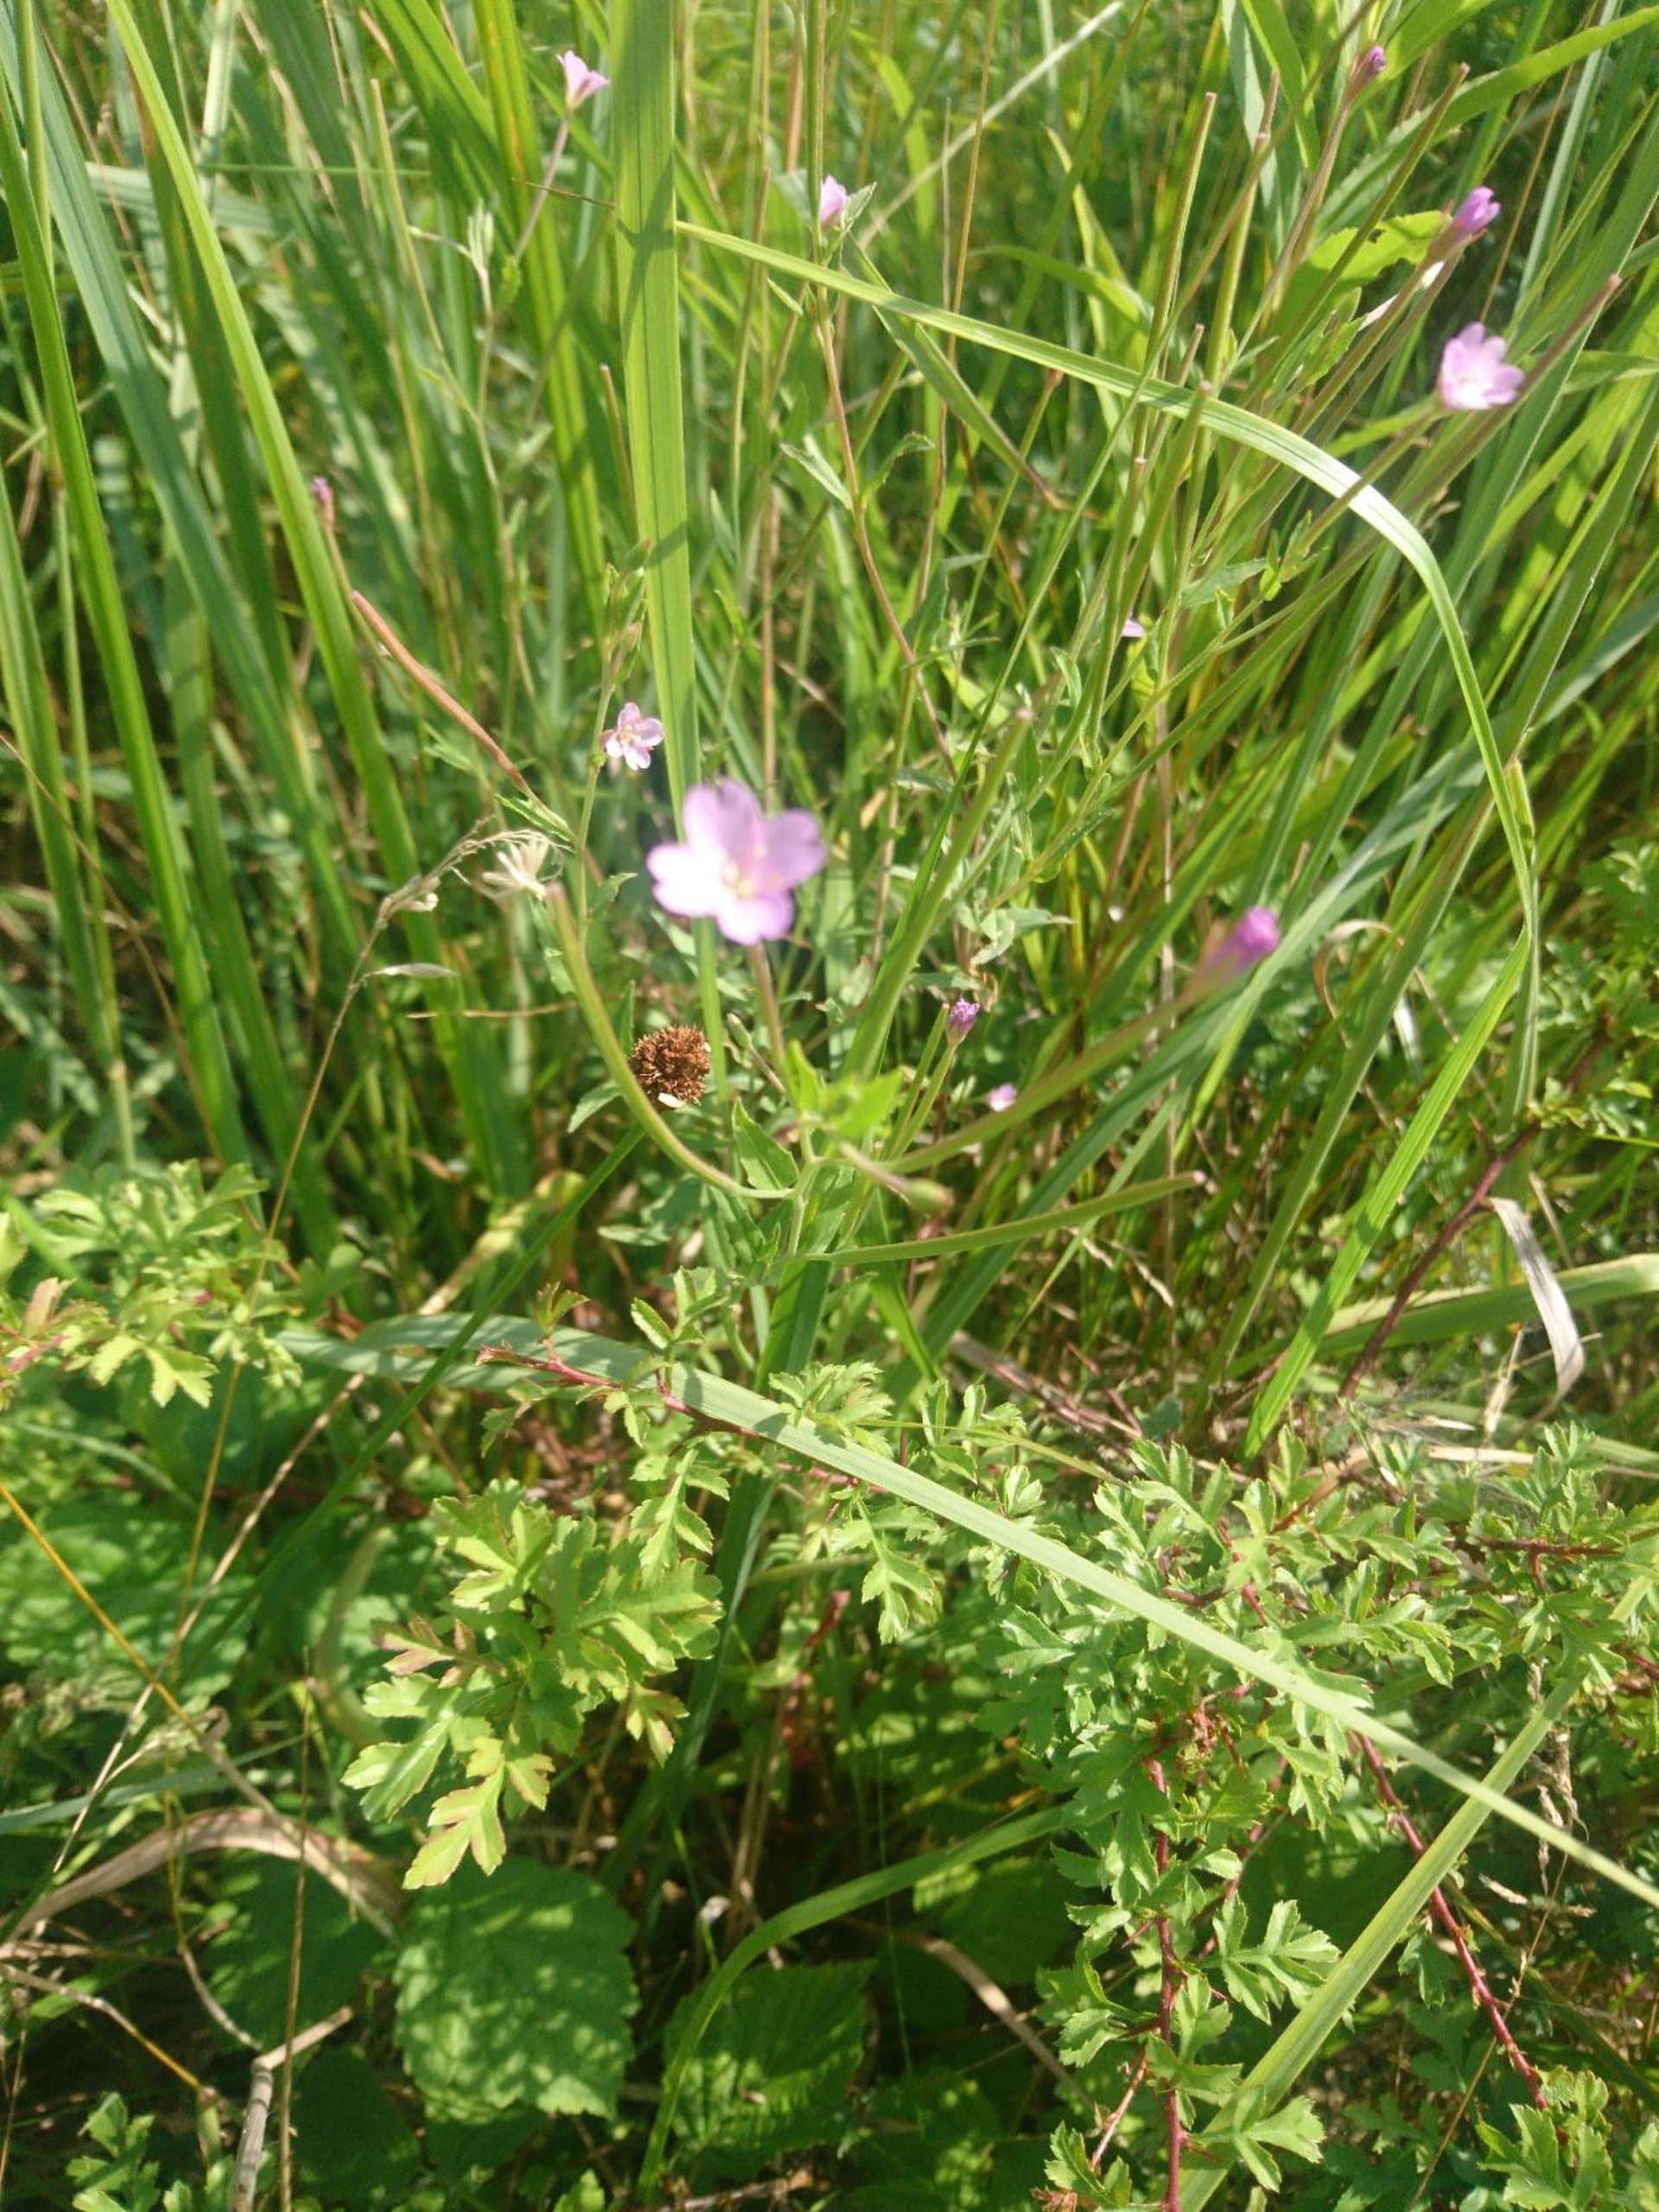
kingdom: Plantae
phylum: Tracheophyta
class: Magnoliopsida
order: Myrtales
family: Onagraceae
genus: Epilobium
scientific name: Epilobium montanum
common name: Glat dueurt
